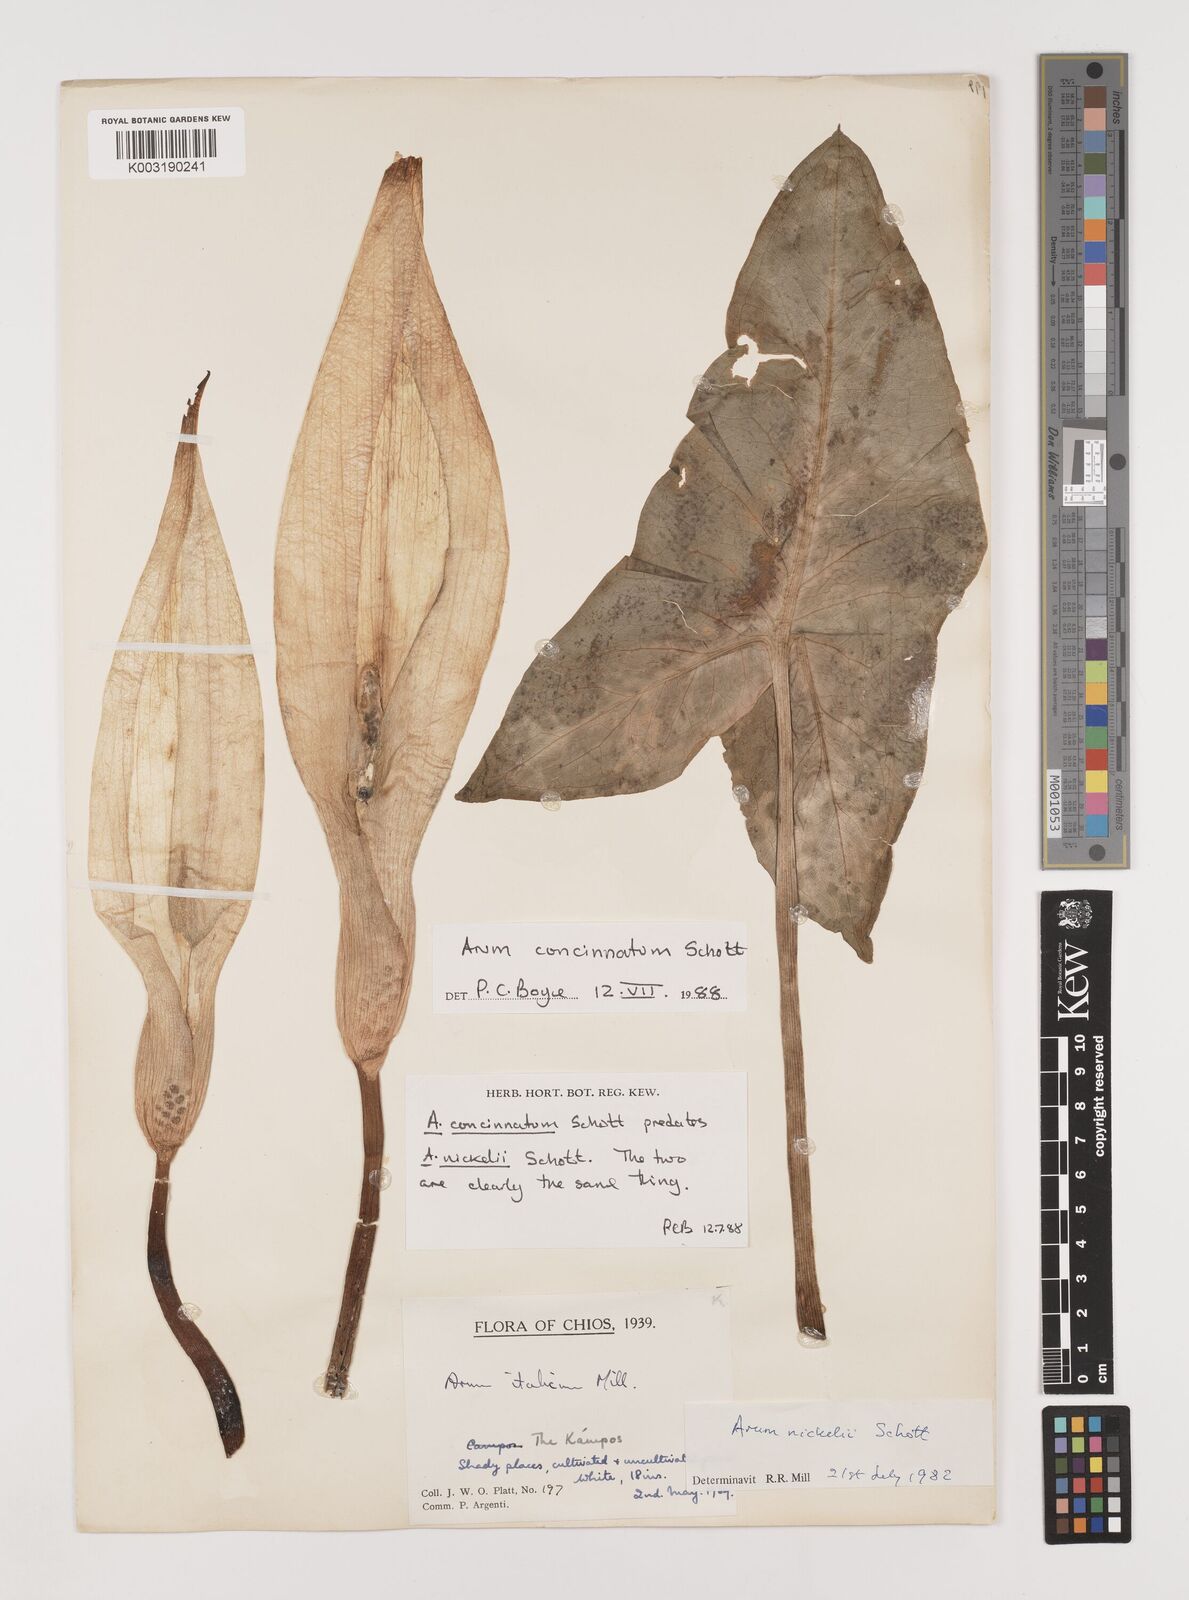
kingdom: Plantae
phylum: Tracheophyta
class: Liliopsida
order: Alismatales
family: Araceae
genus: Arum
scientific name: Arum concinnatum
